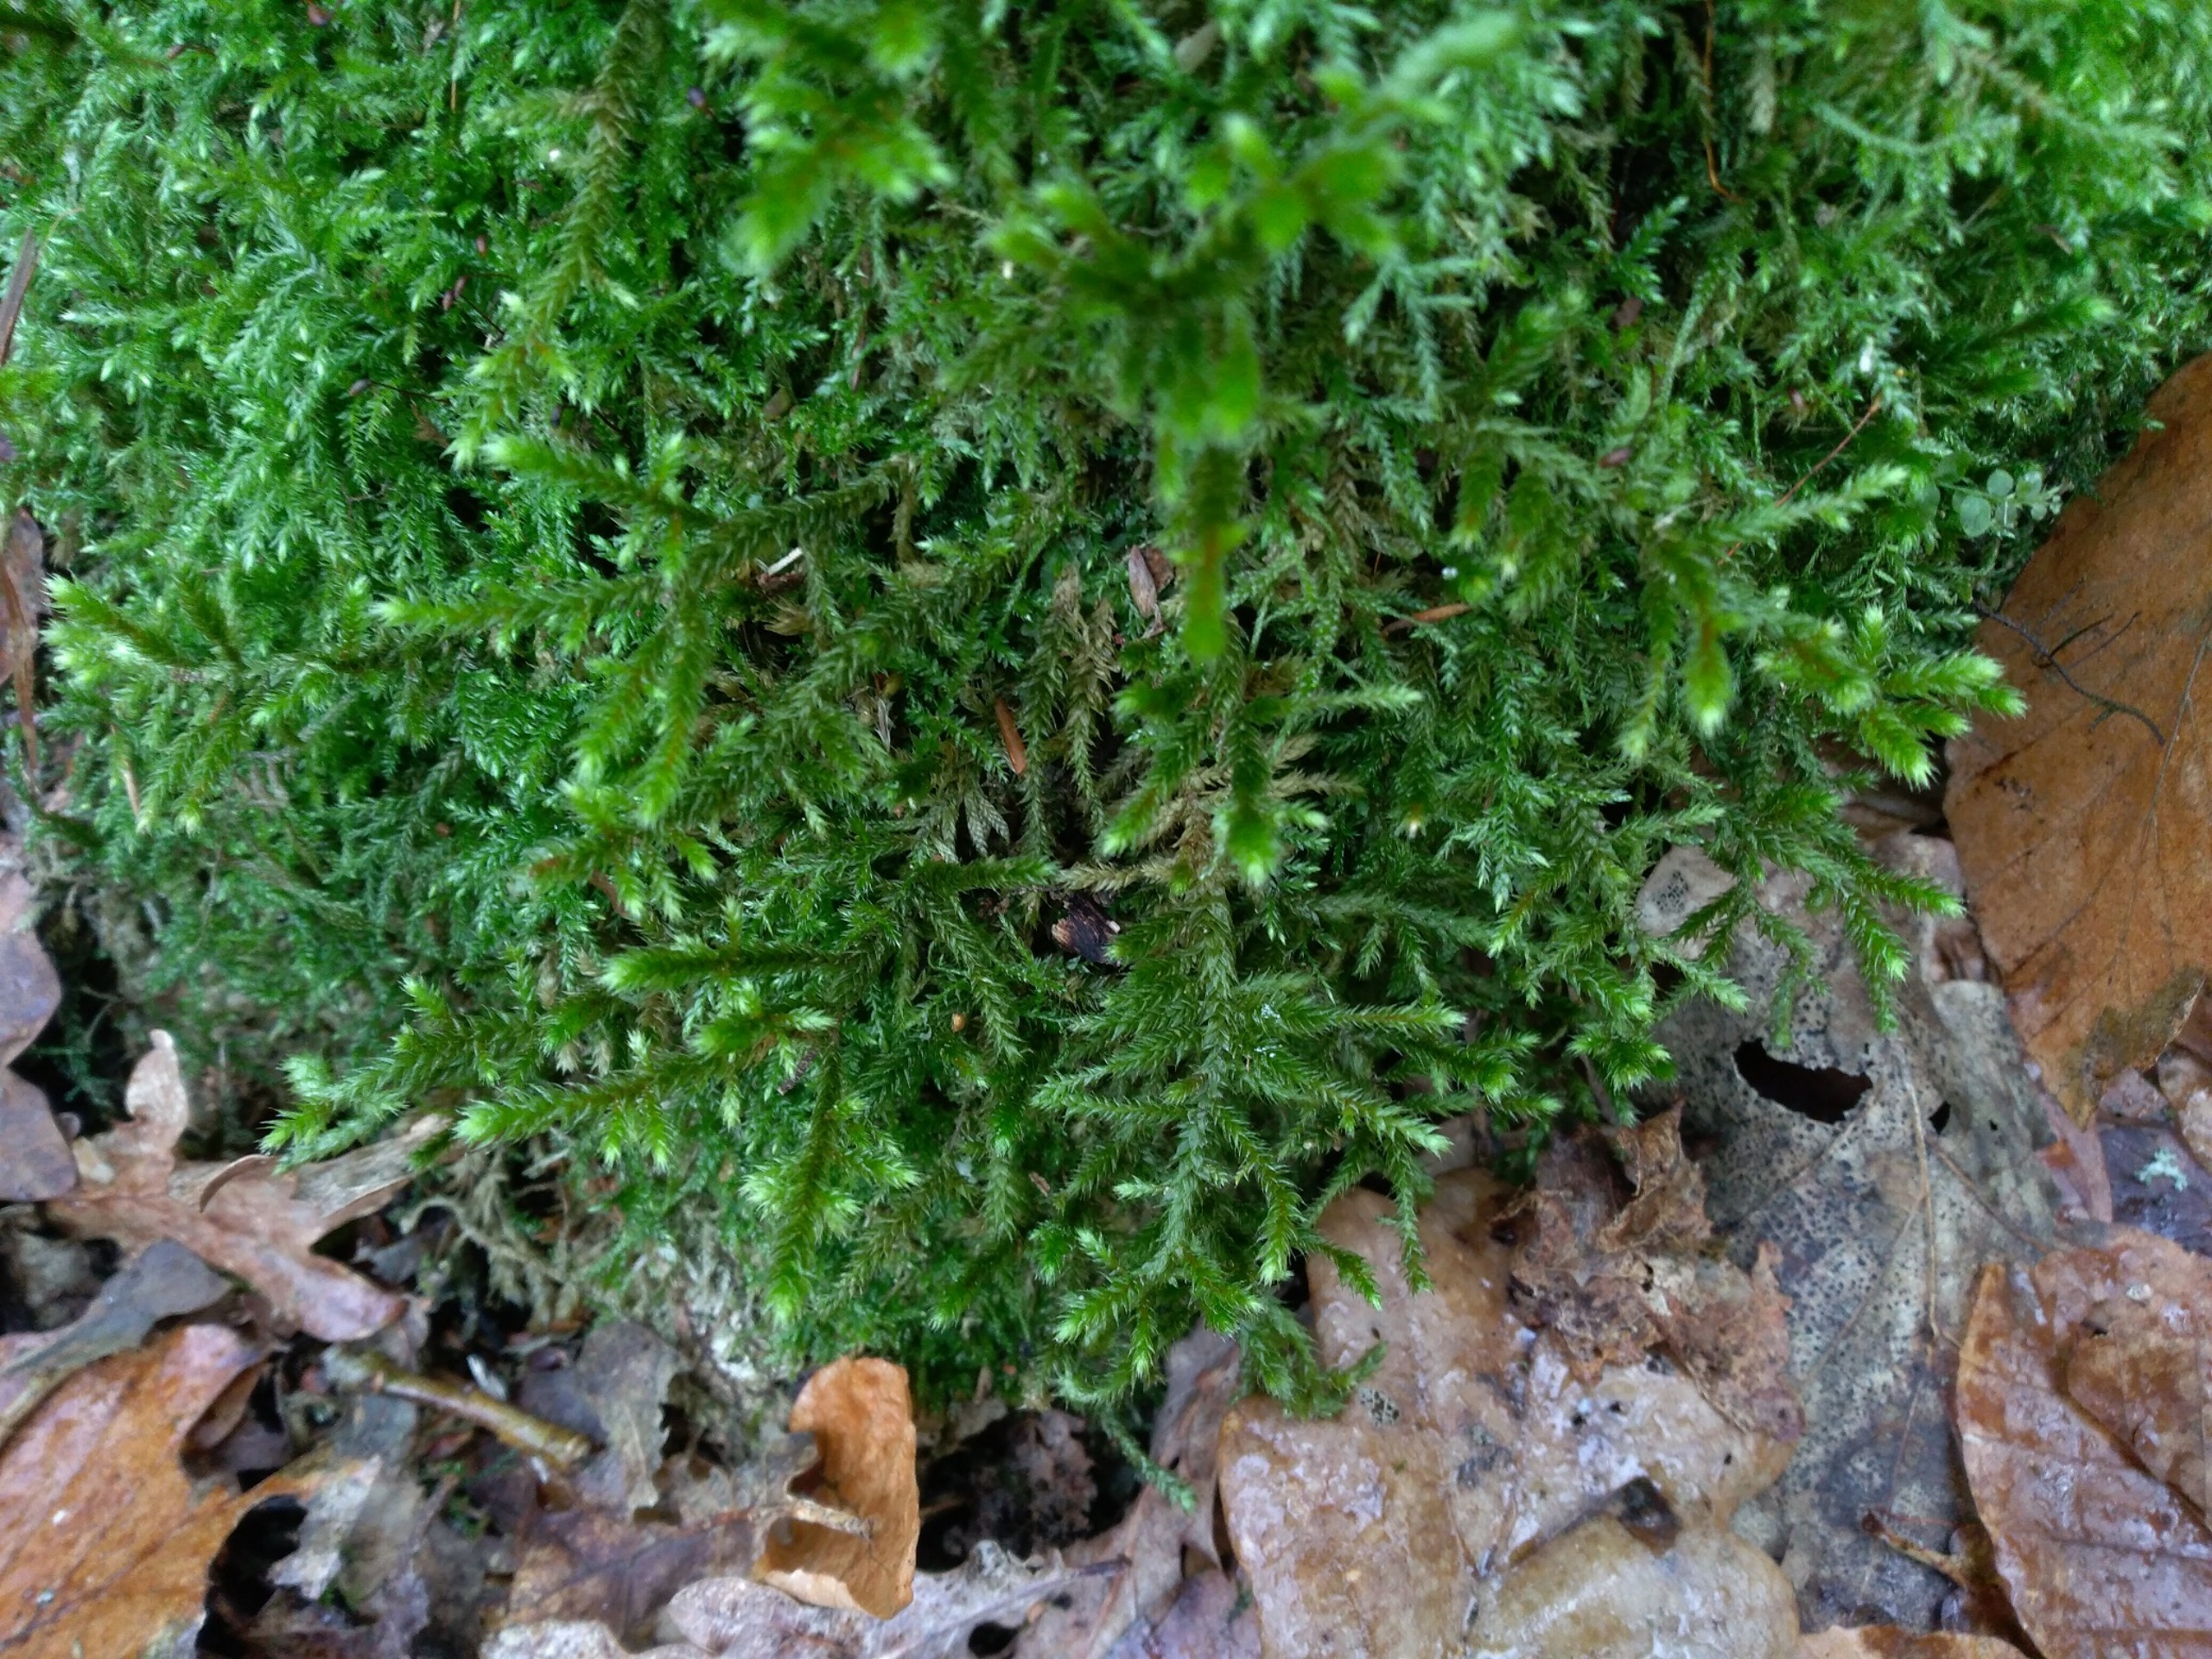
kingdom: Plantae
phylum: Bryophyta
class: Bryopsida
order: Hypnales
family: Antitrichiaceae
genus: Antitrichia
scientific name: Antitrichia curtipendula
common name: Åben krogtand
